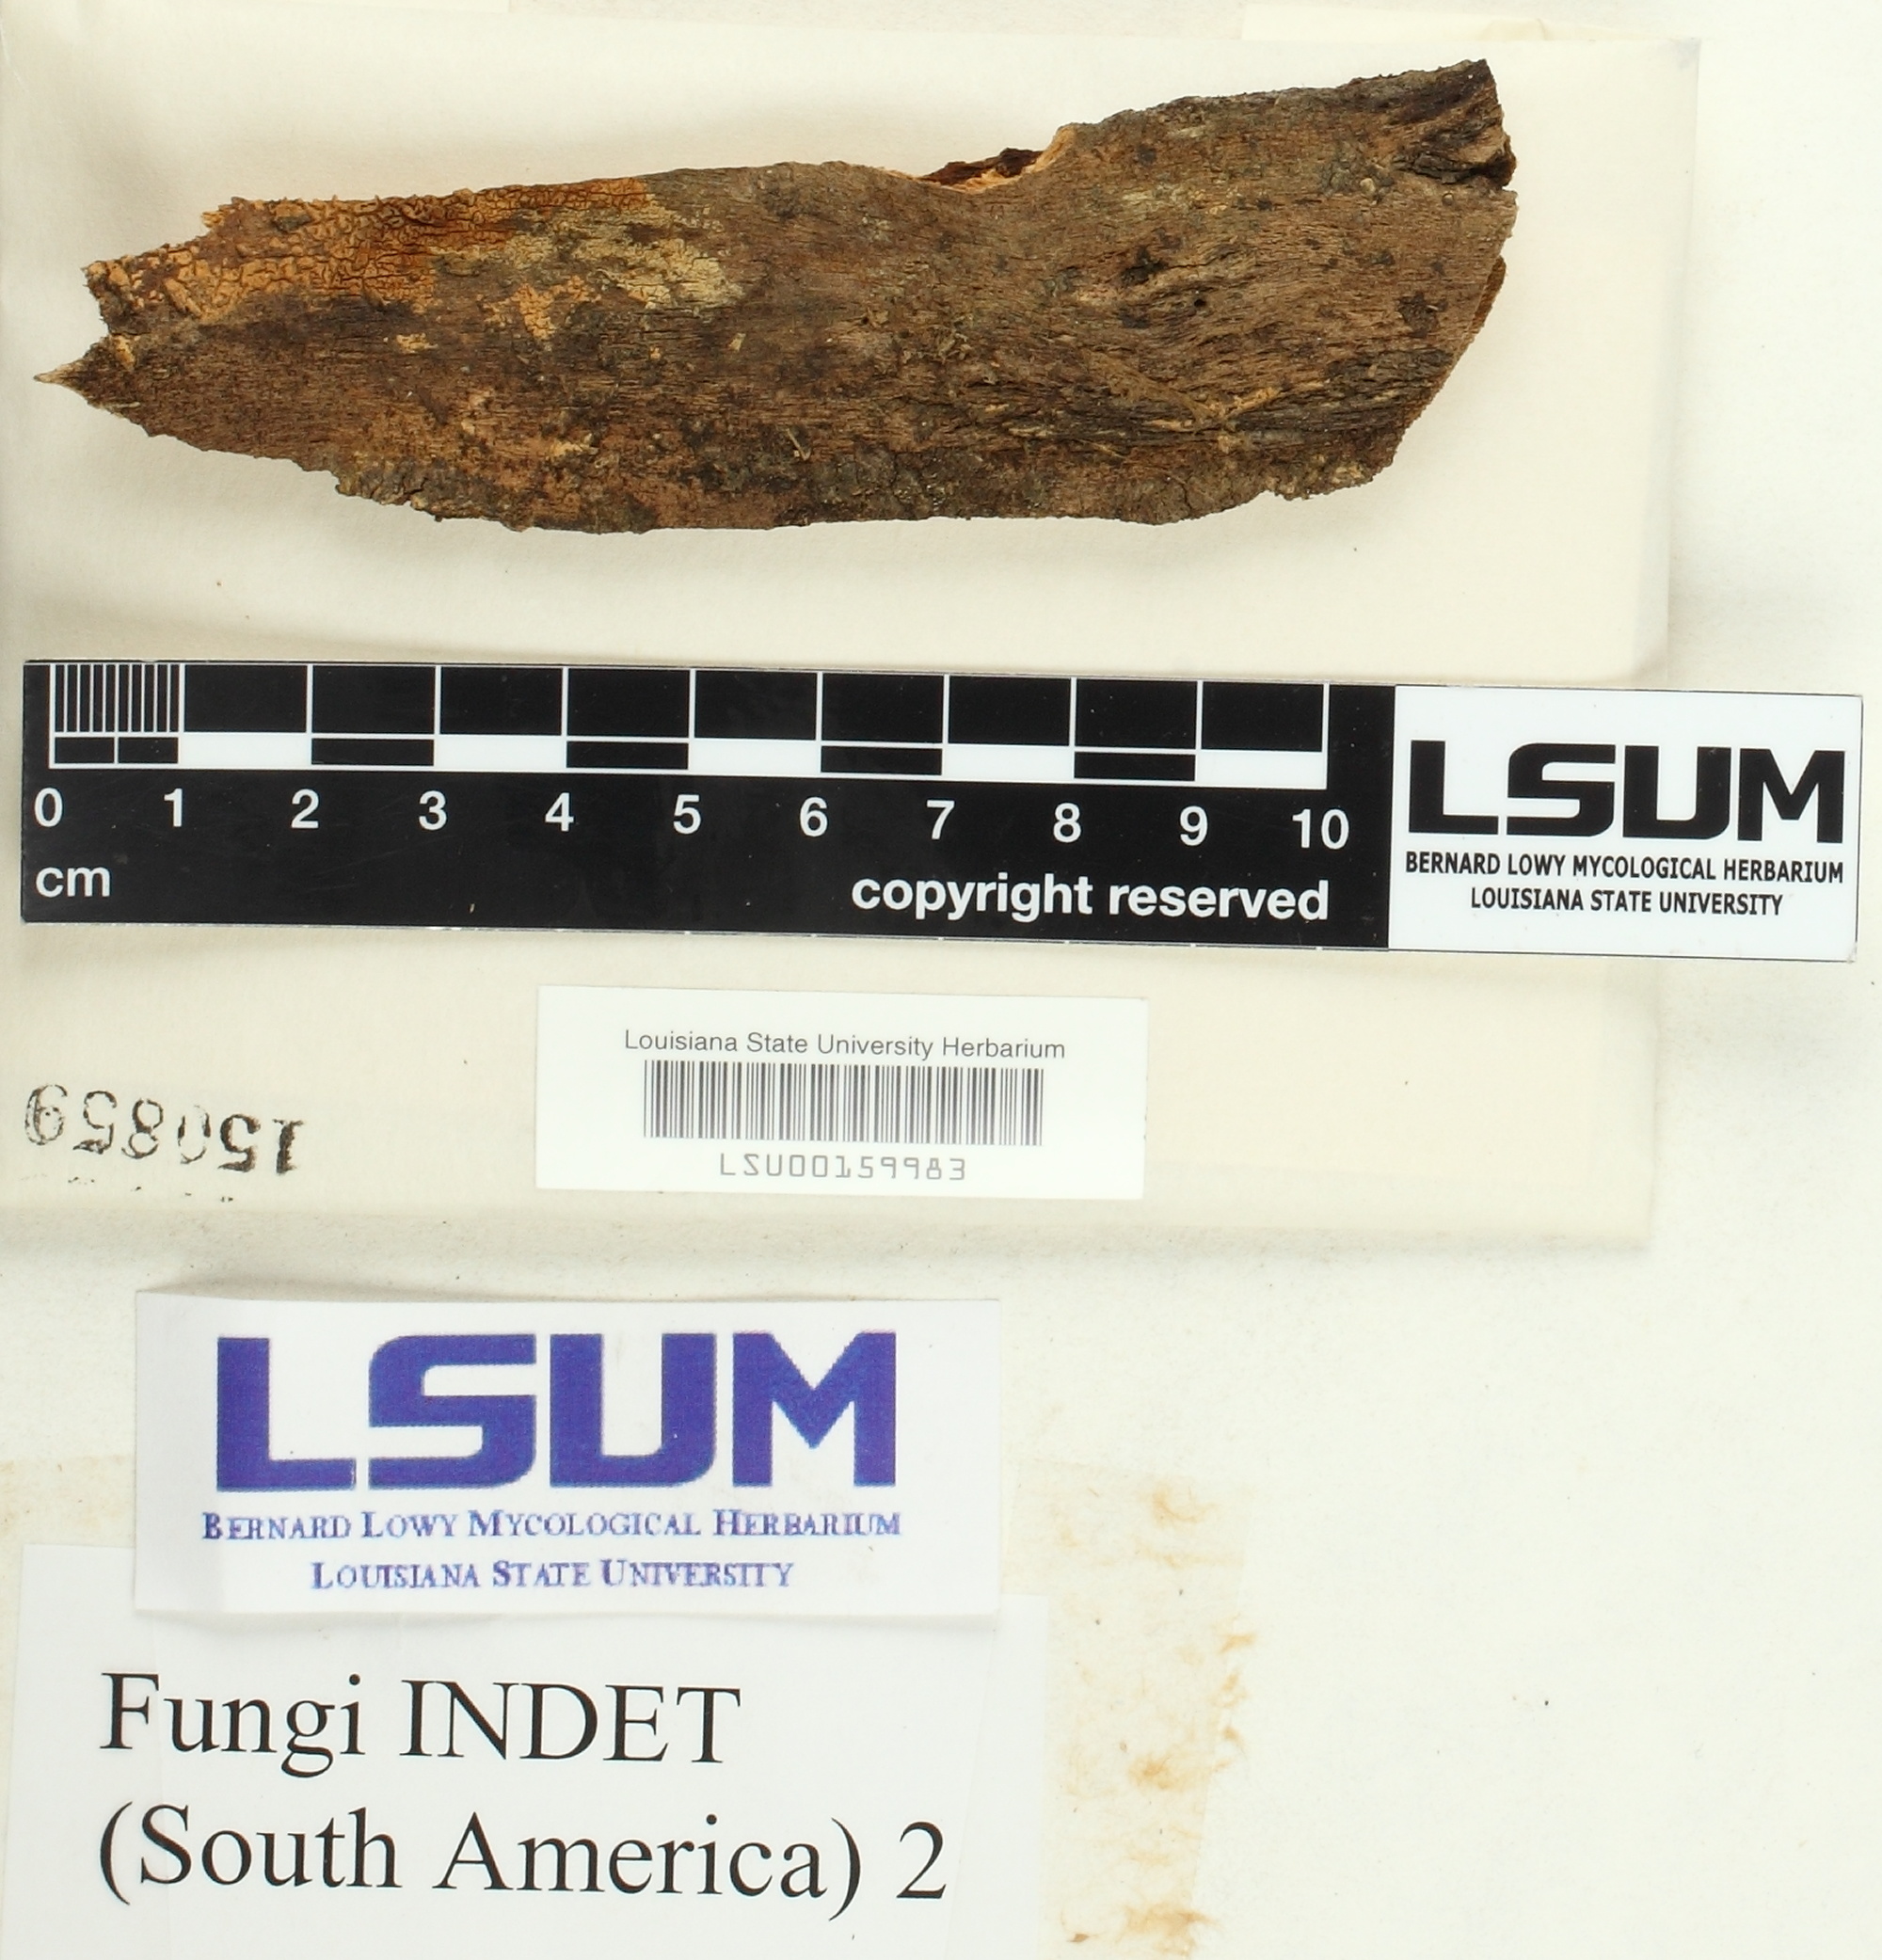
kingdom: Fungi
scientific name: Fungi
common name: Fungi
